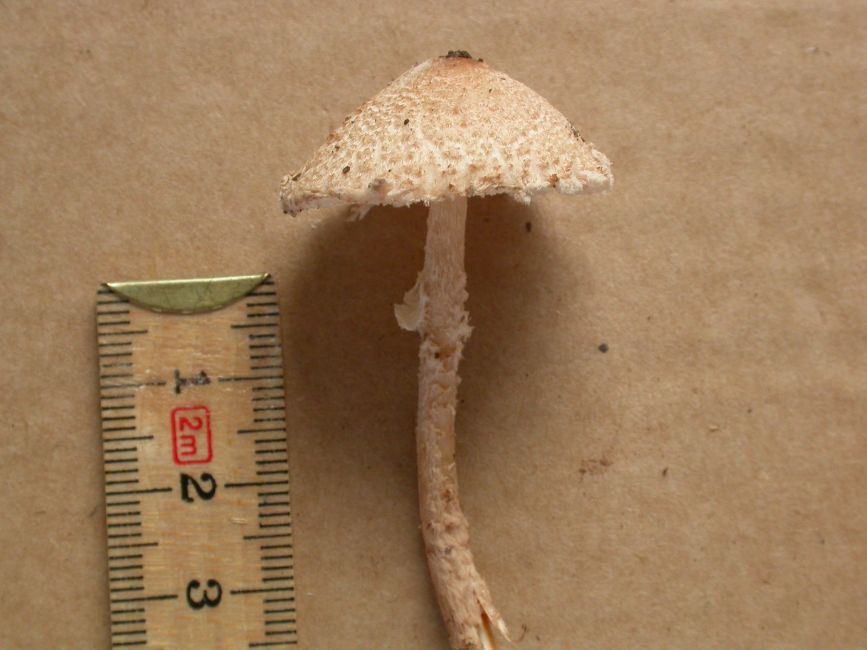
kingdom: Fungi
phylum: Basidiomycota
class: Agaricomycetes
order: Agaricales
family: Agaricaceae
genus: Lepiota
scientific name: Lepiota clypeolaria
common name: flosset parasolhat
